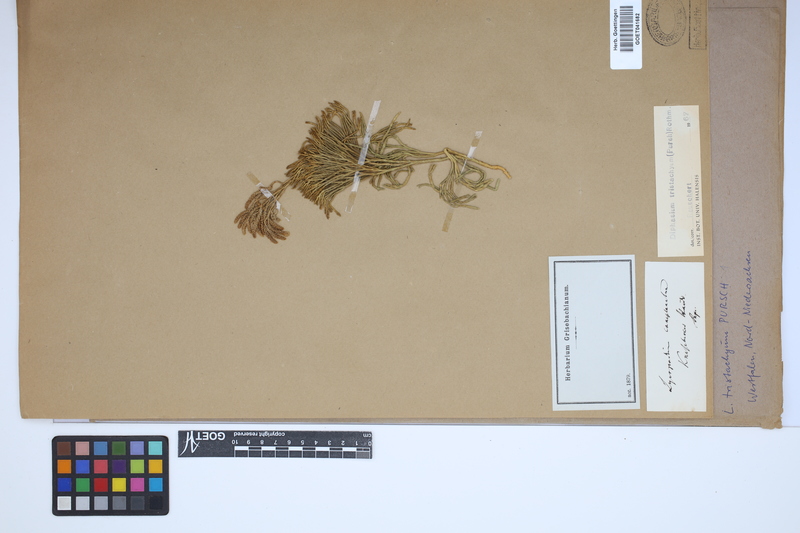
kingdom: Plantae
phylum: Tracheophyta
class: Lycopodiopsida
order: Lycopodiales
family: Lycopodiaceae
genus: Diphasiastrum
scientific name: Diphasiastrum tristachyum
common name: Blue ground-cedar
